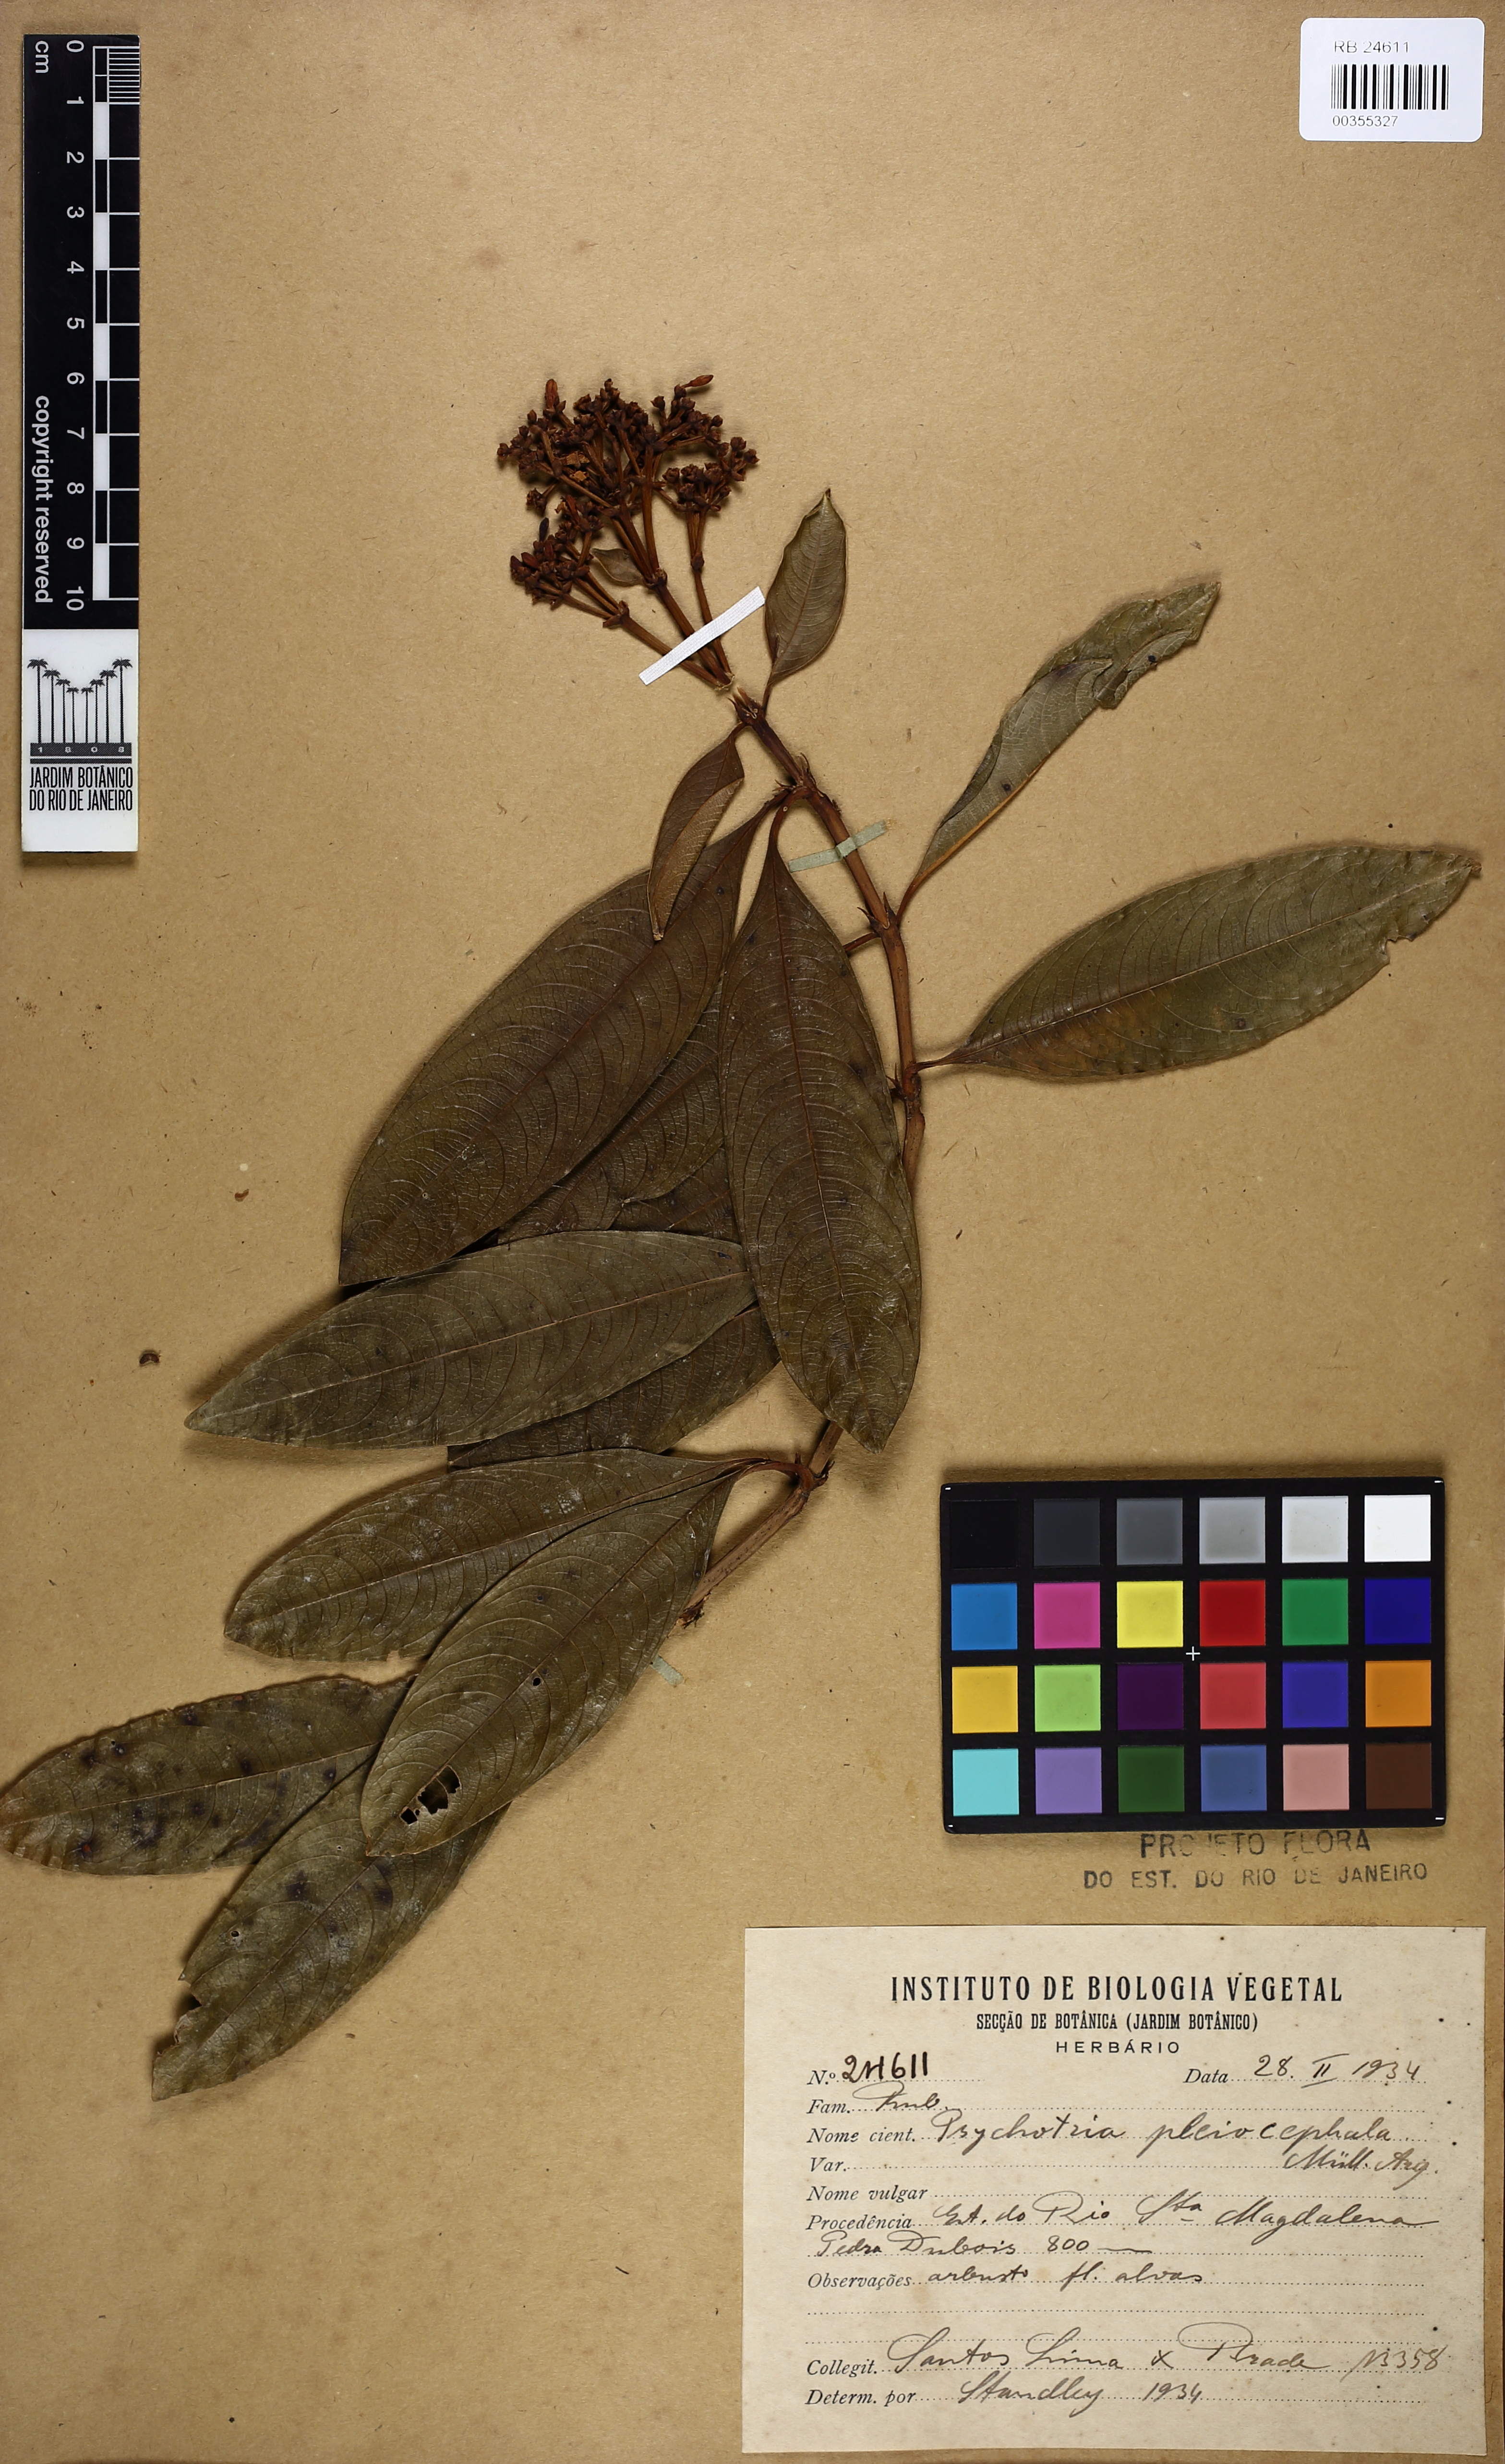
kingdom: Plantae
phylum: Tracheophyta
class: Magnoliopsida
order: Gentianales
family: Rubiaceae
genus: Palicourea
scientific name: Palicourea pleiocephala
